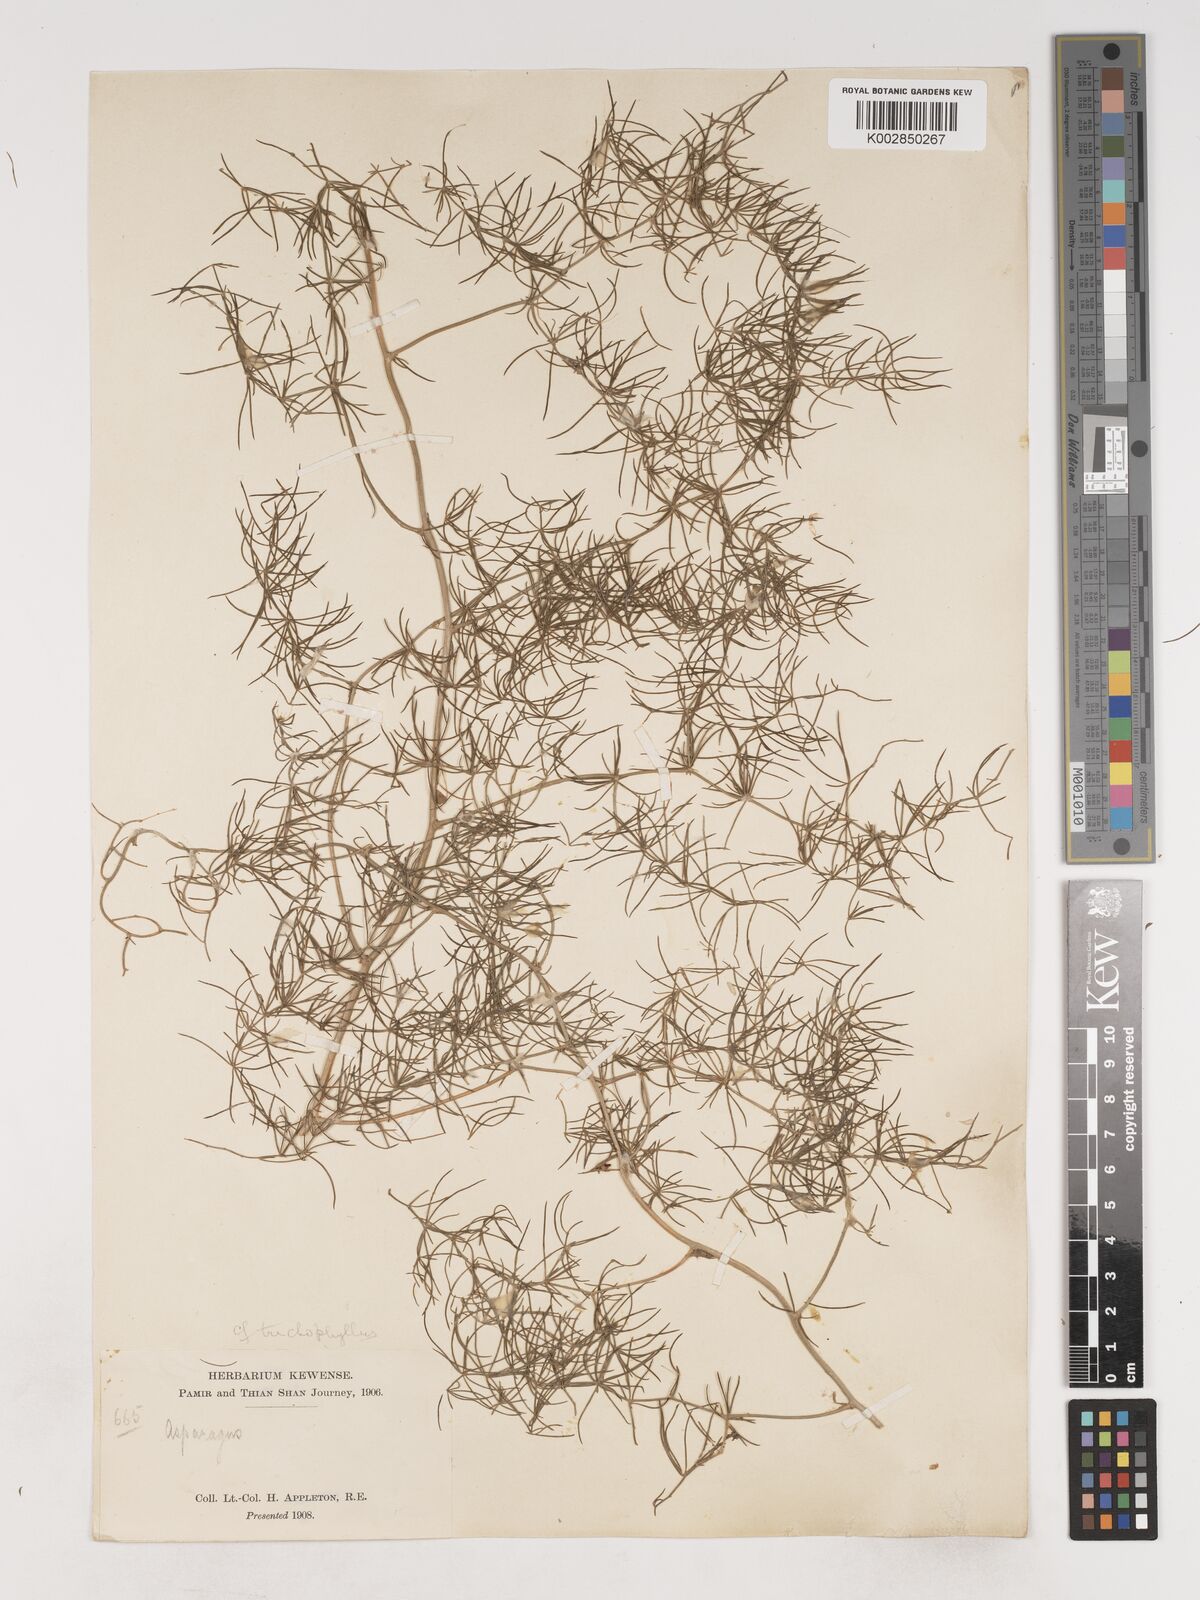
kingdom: Plantae
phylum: Tracheophyta
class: Liliopsida
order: Asparagales
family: Asparagaceae
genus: Asparagus
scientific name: Asparagus
